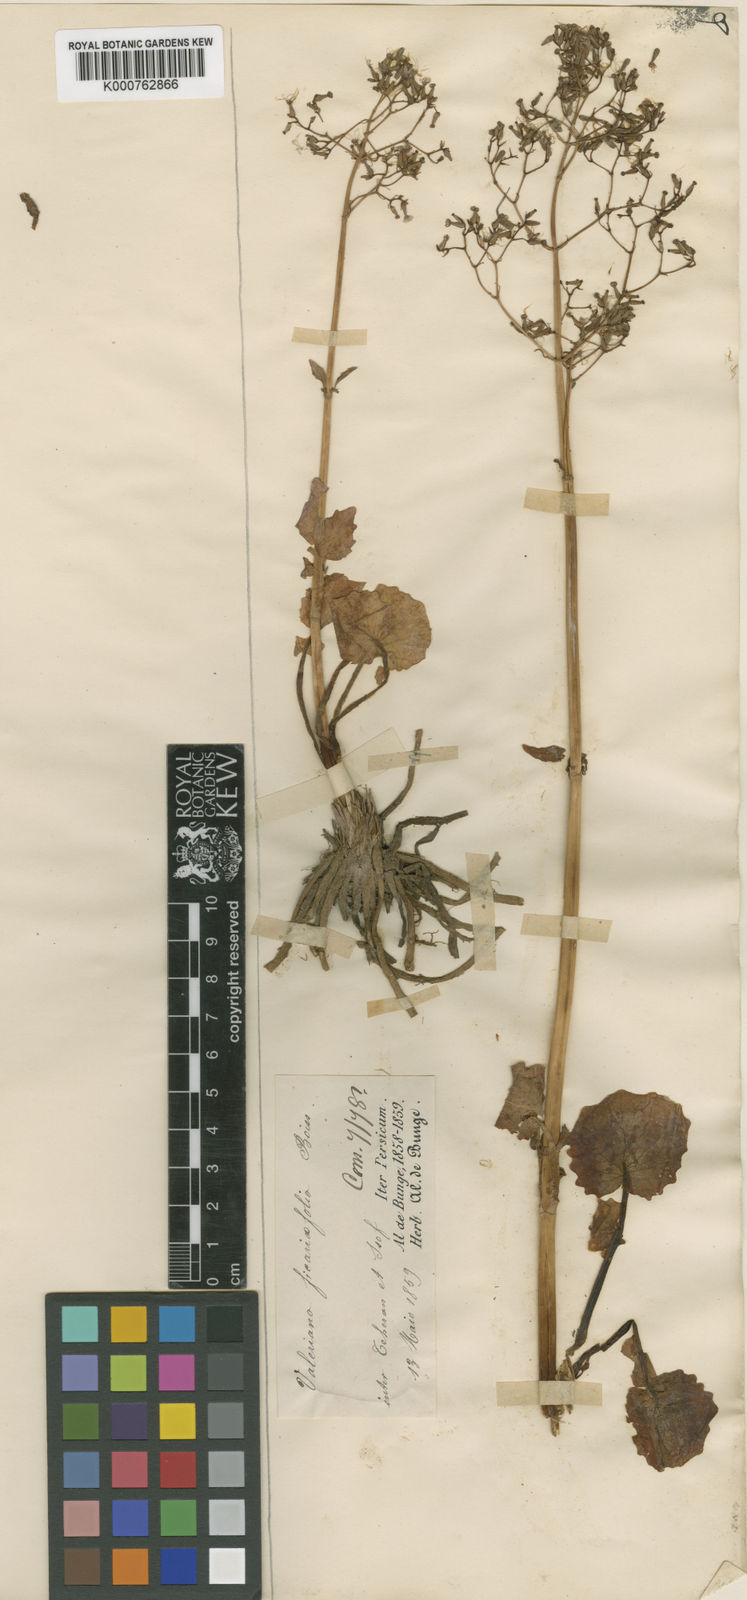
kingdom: Plantae
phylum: Tracheophyta
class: Magnoliopsida
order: Dipsacales
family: Caprifoliaceae
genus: Valeriana
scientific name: Valeriana ficariifolia
